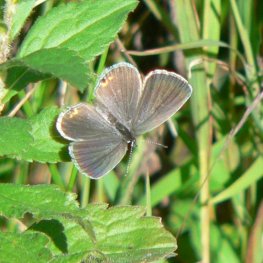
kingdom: Animalia
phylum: Arthropoda
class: Insecta
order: Lepidoptera
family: Lycaenidae
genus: Elkalyce
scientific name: Elkalyce comyntas
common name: Eastern Tailed-Blue
